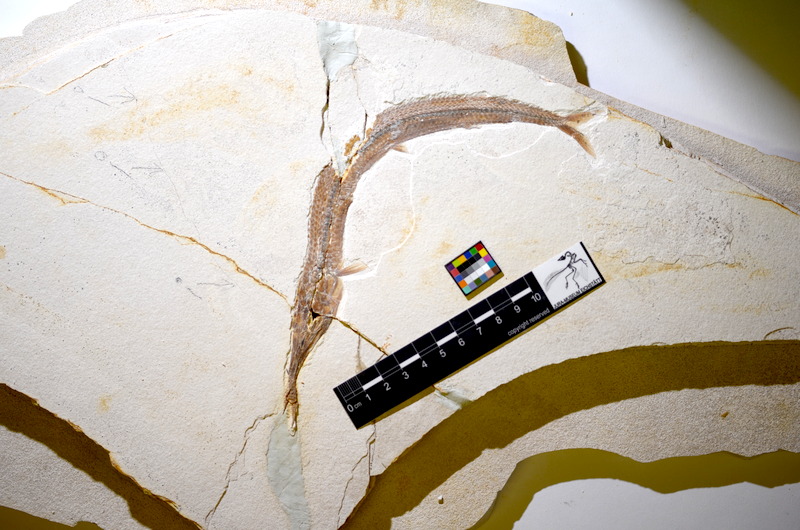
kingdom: Animalia
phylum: Chordata
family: Aspidorhynchidae
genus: Belonostomus
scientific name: Belonostomus kochii
